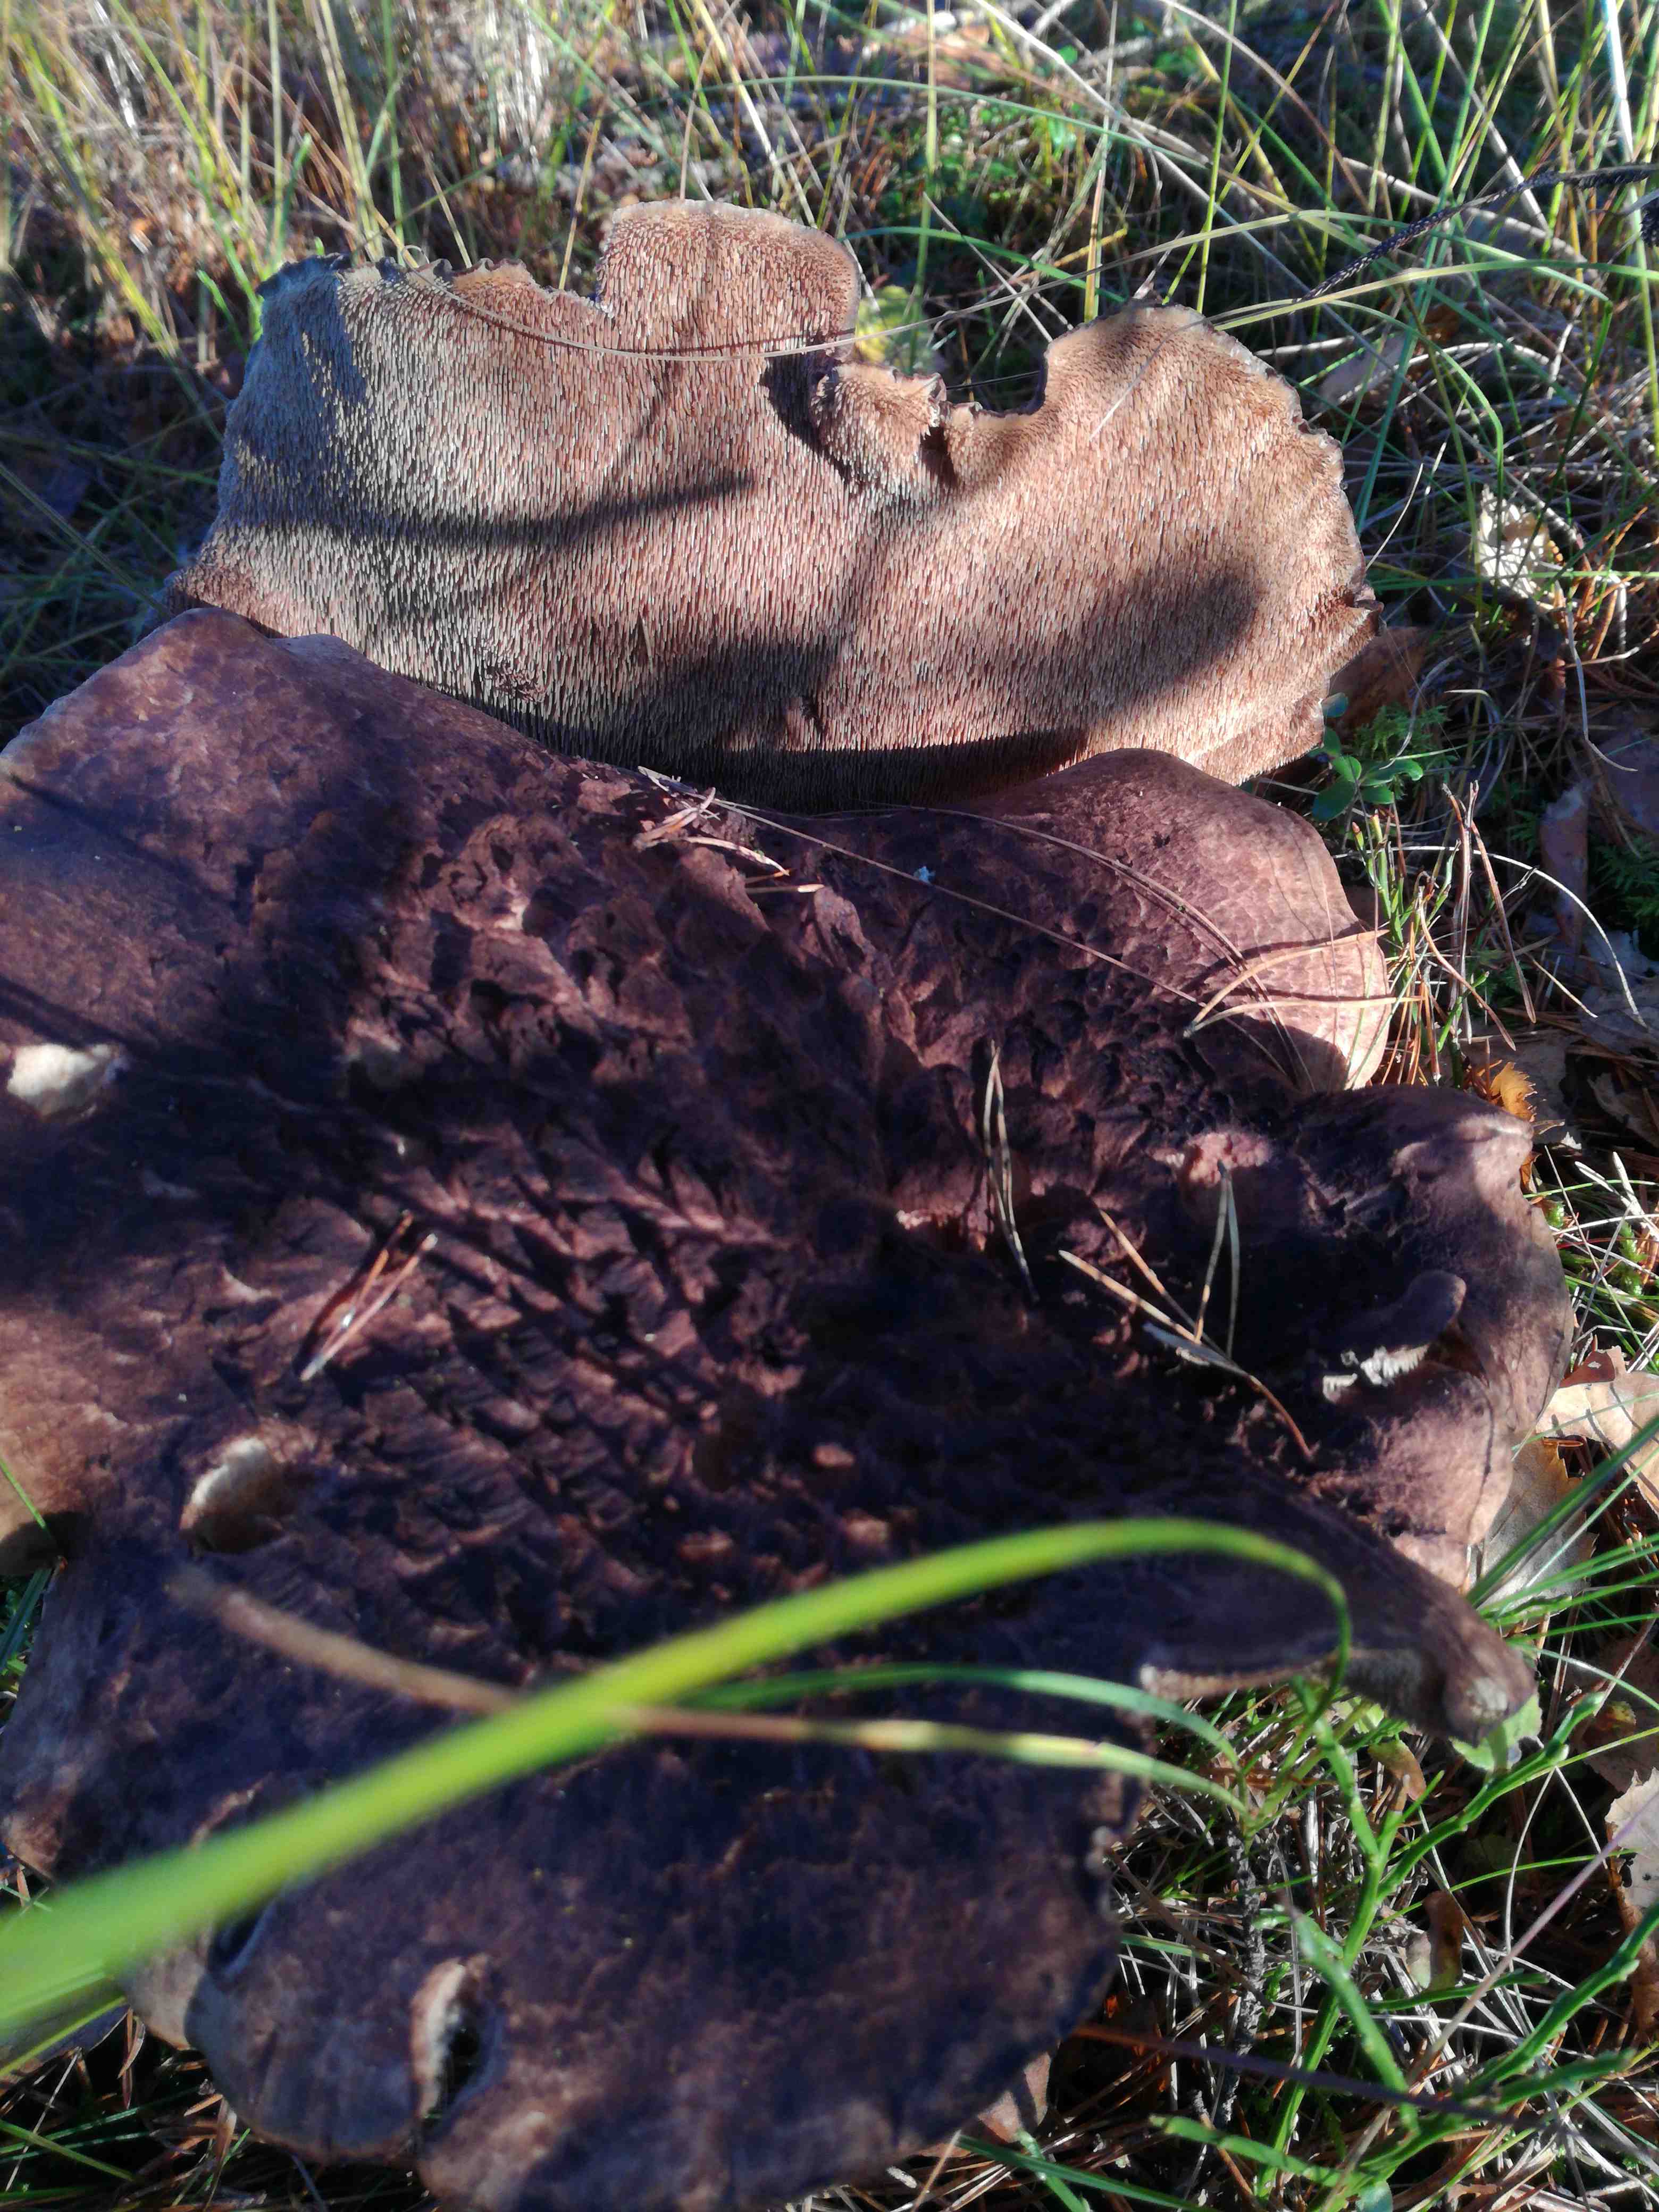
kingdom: Fungi
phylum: Basidiomycota
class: Agaricomycetes
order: Thelephorales
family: Bankeraceae
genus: Sarcodon
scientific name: Sarcodon imbricatus
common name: skællet kødpigsvamp
